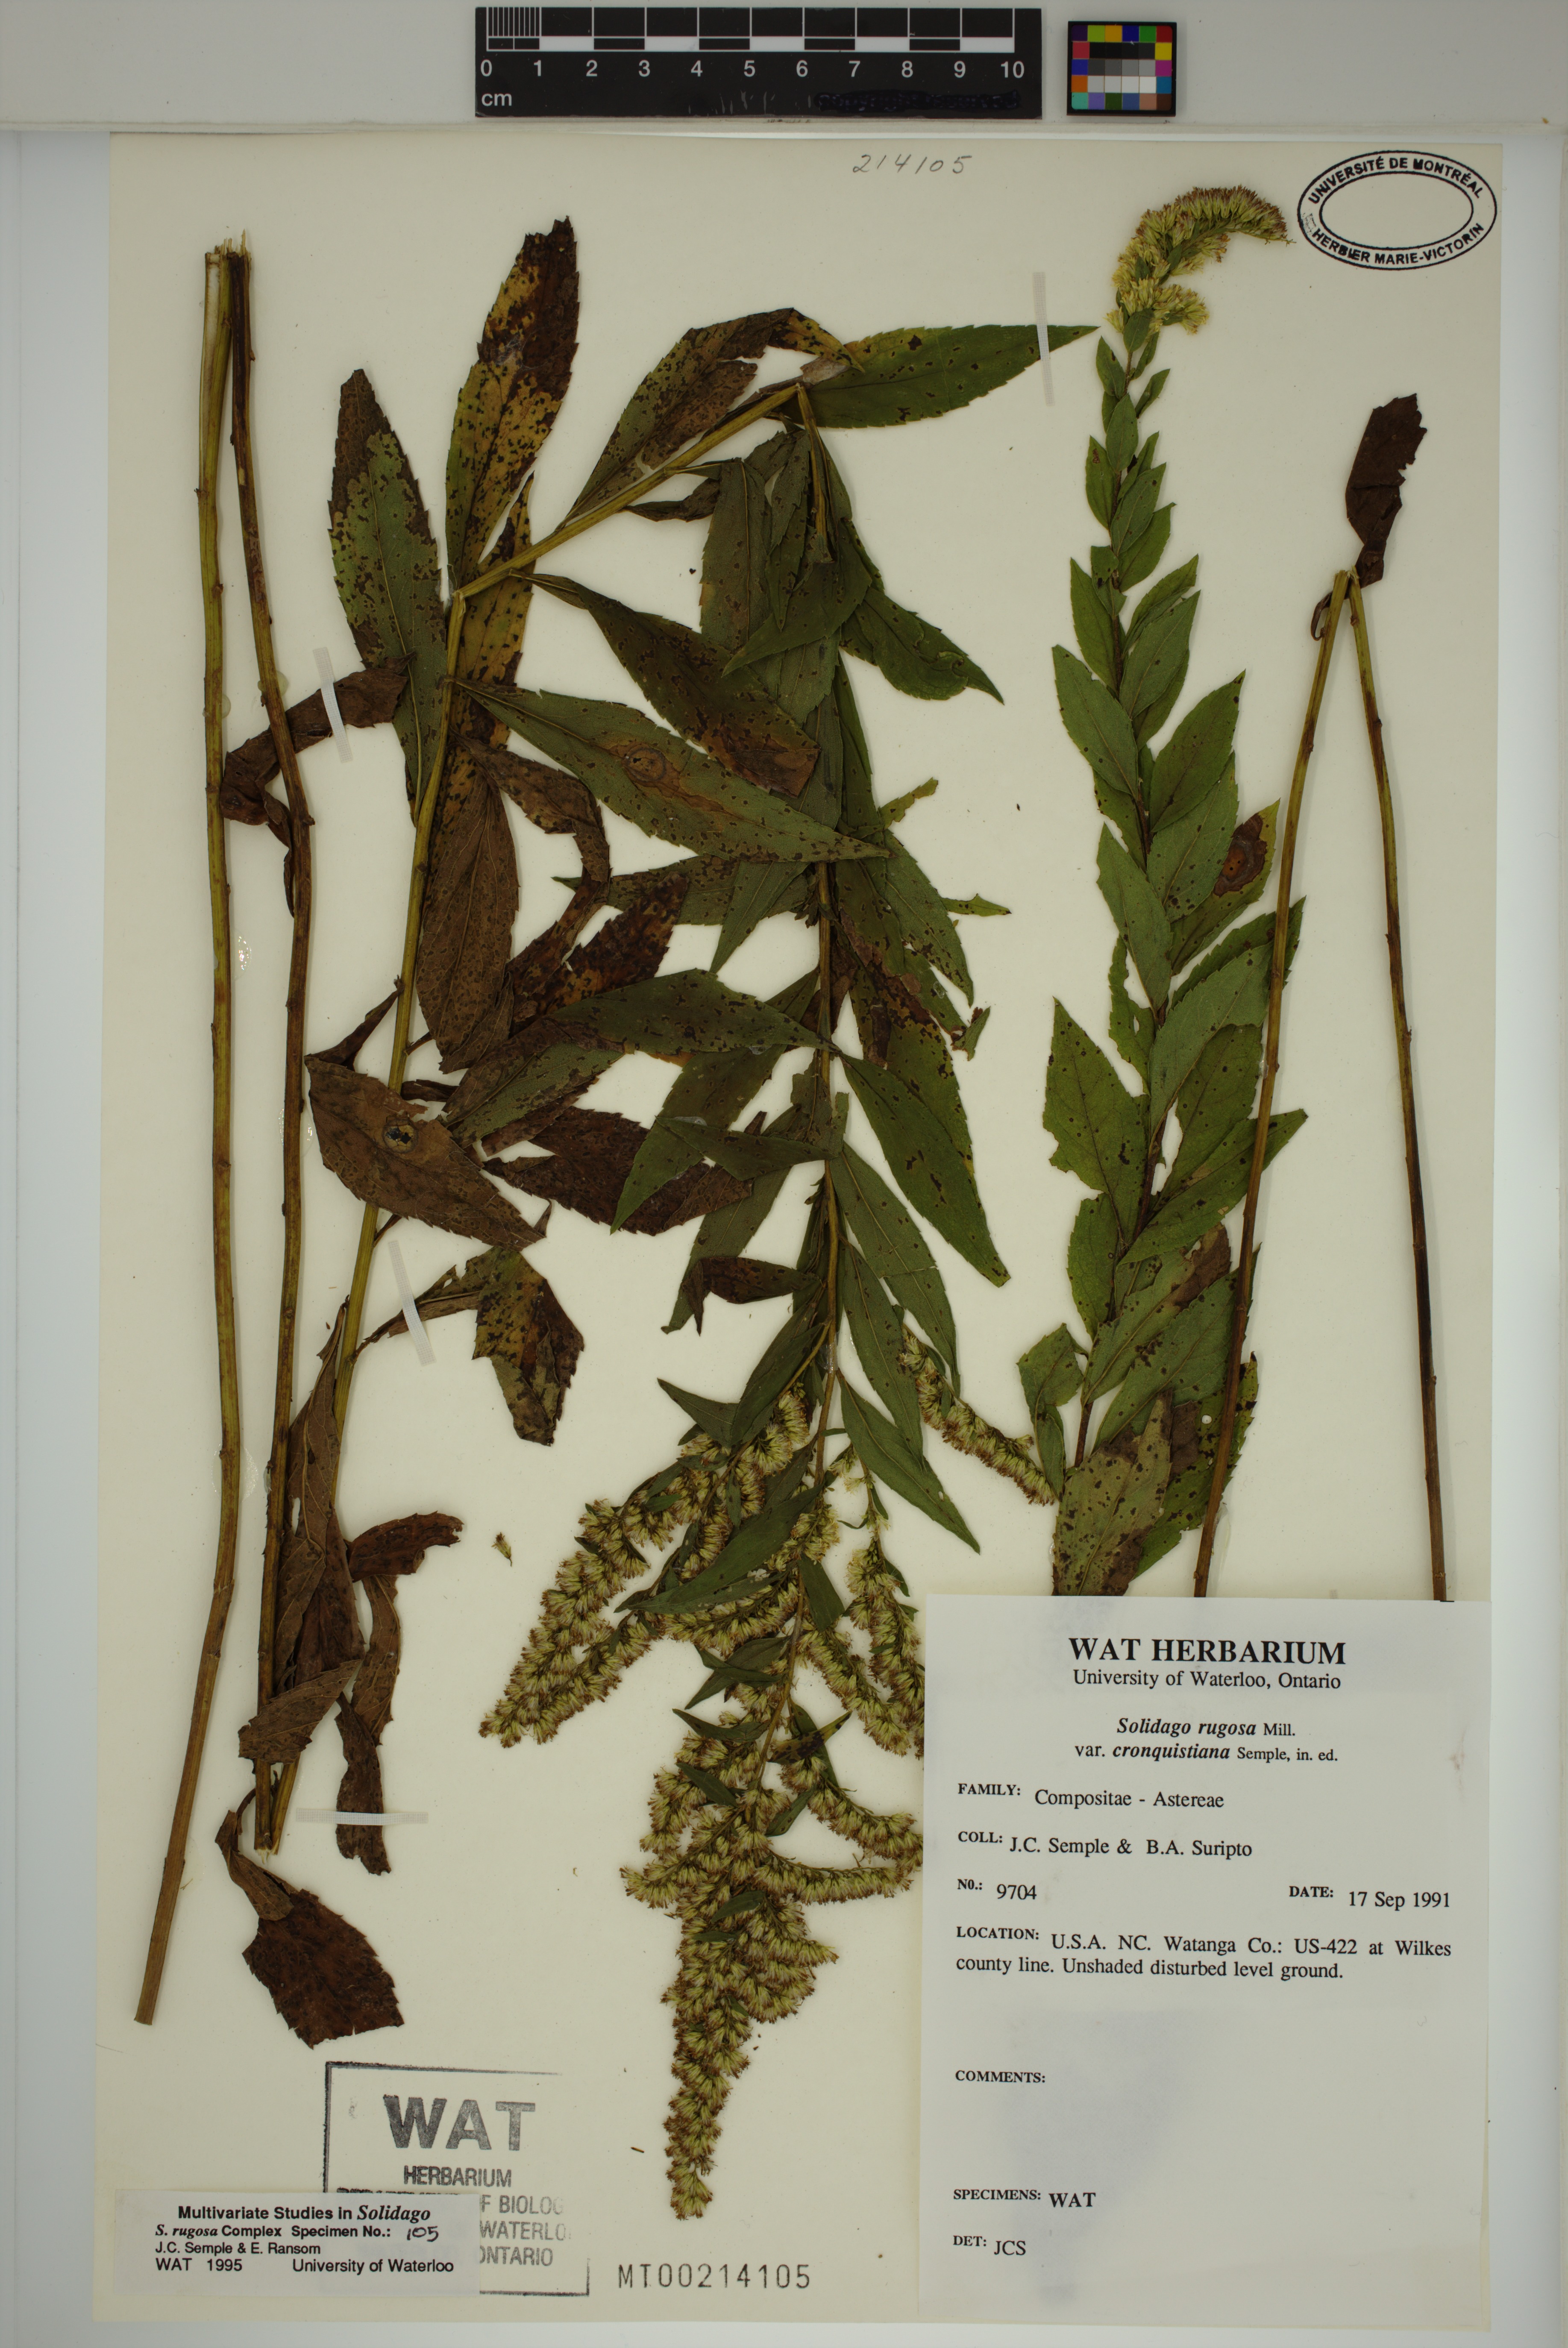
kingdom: Plantae
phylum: Tracheophyta
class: Magnoliopsida
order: Asterales
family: Asteraceae
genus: Solidago
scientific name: Solidago rugosa
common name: Rough-stemmed goldenrod
